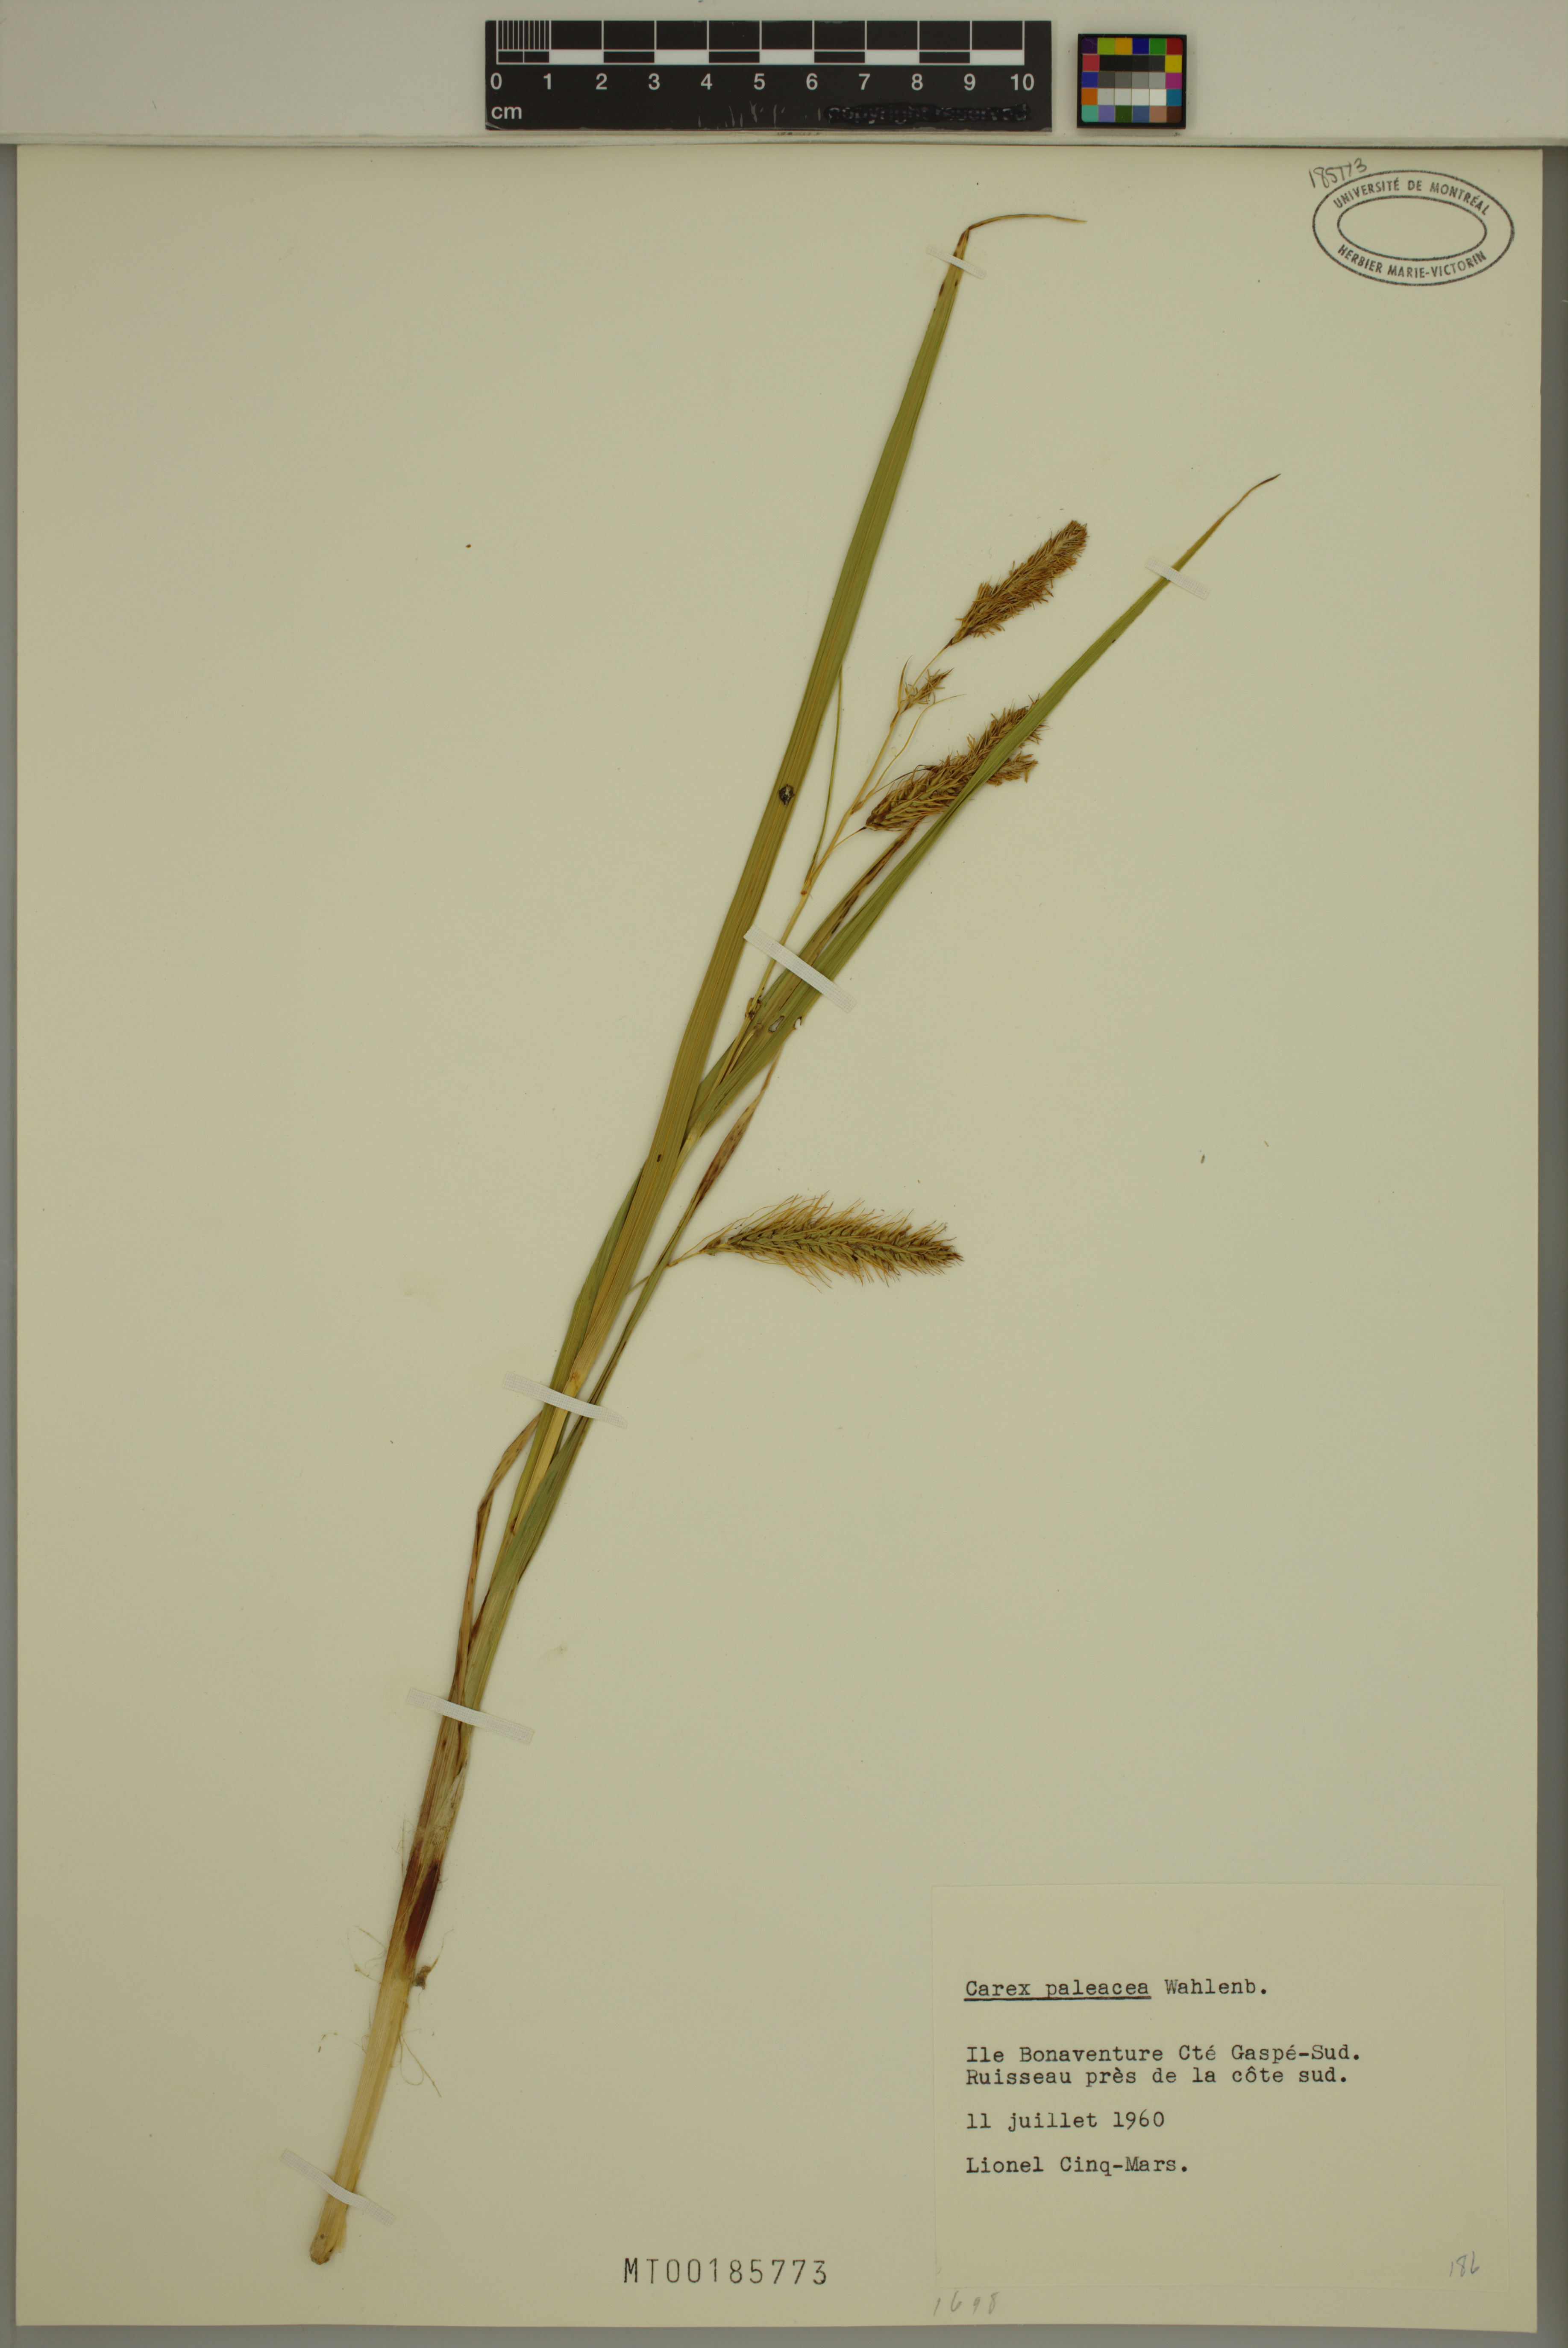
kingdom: Plantae
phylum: Tracheophyta
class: Liliopsida
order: Poales
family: Cyperaceae
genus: Carex
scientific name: Carex paleacea
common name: Chaffy sedge
